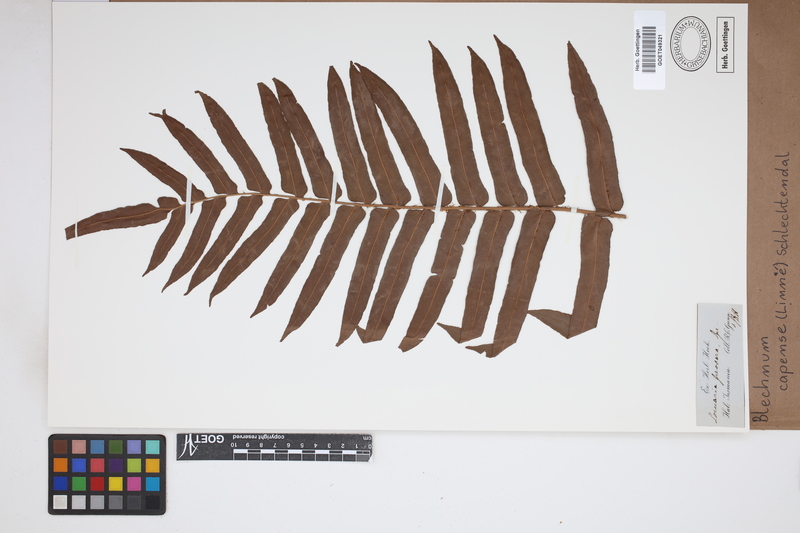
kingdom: Plantae
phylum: Tracheophyta
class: Polypodiopsida
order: Polypodiales
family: Blechnaceae
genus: Parablechnum
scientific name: Parablechnum capense
